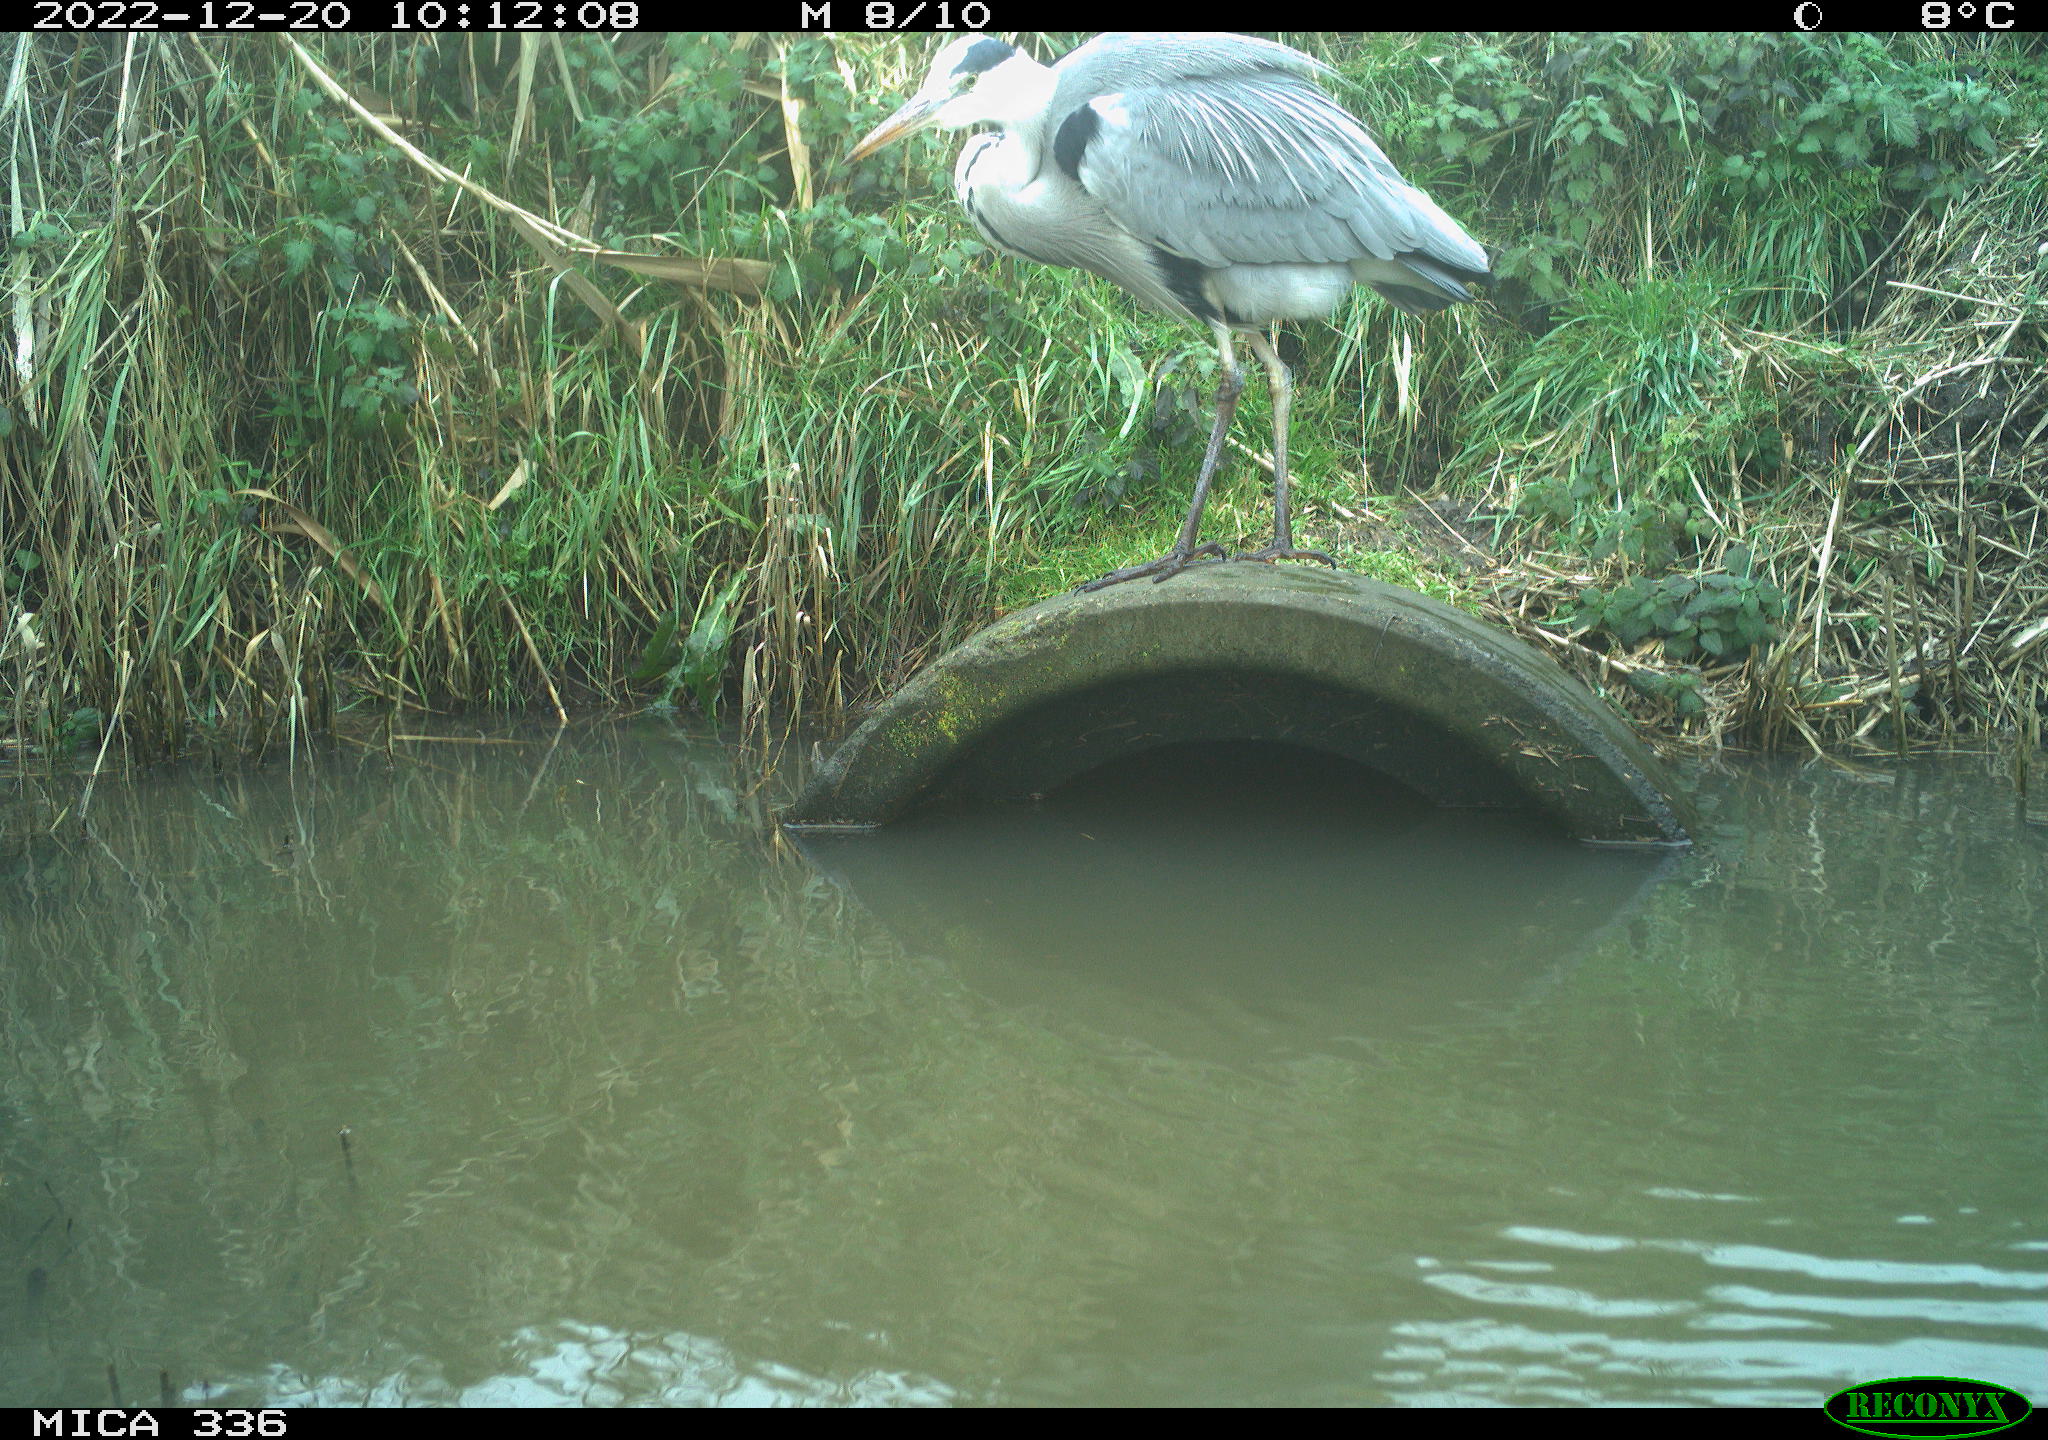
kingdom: Animalia
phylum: Chordata
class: Aves
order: Pelecaniformes
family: Ardeidae
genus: Ardea
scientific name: Ardea cinerea
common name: Grey heron
